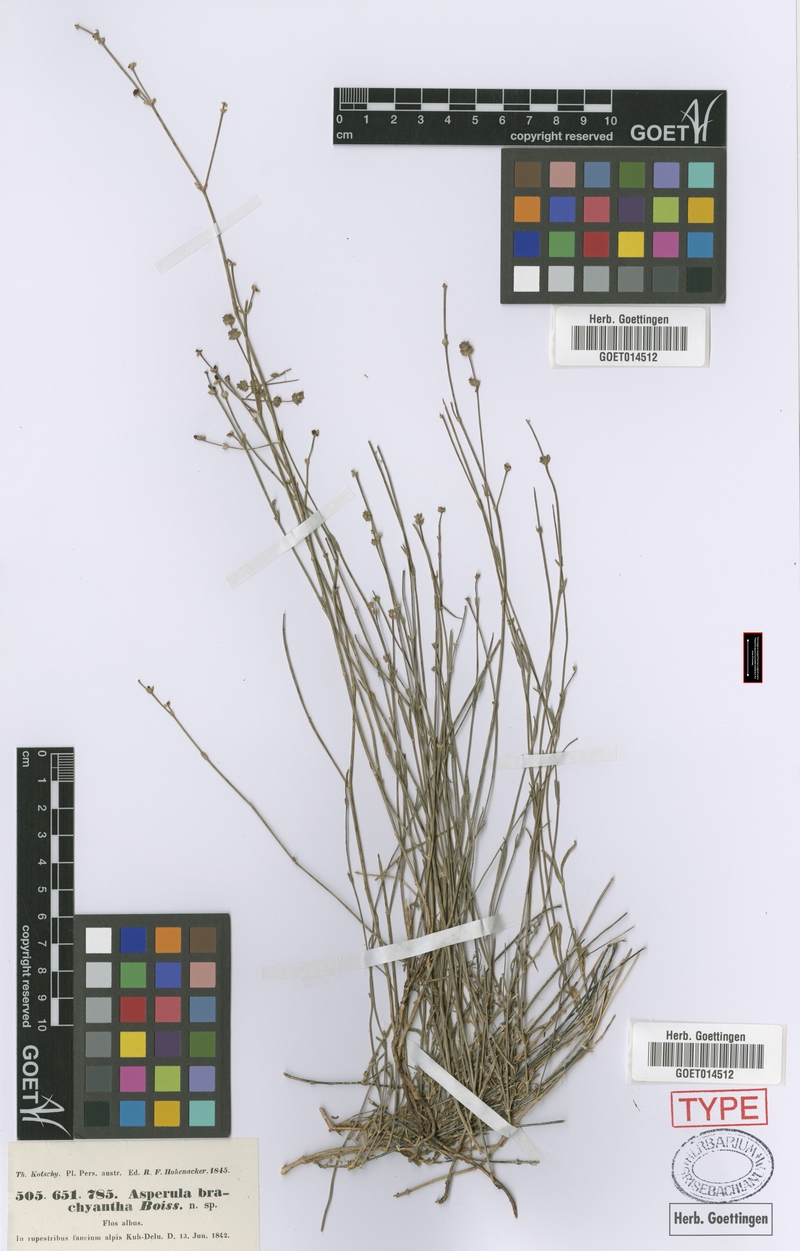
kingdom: Plantae
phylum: Tracheophyta
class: Magnoliopsida
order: Gentianales
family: Rubiaceae
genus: Asperula
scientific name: Asperula brachyantha
